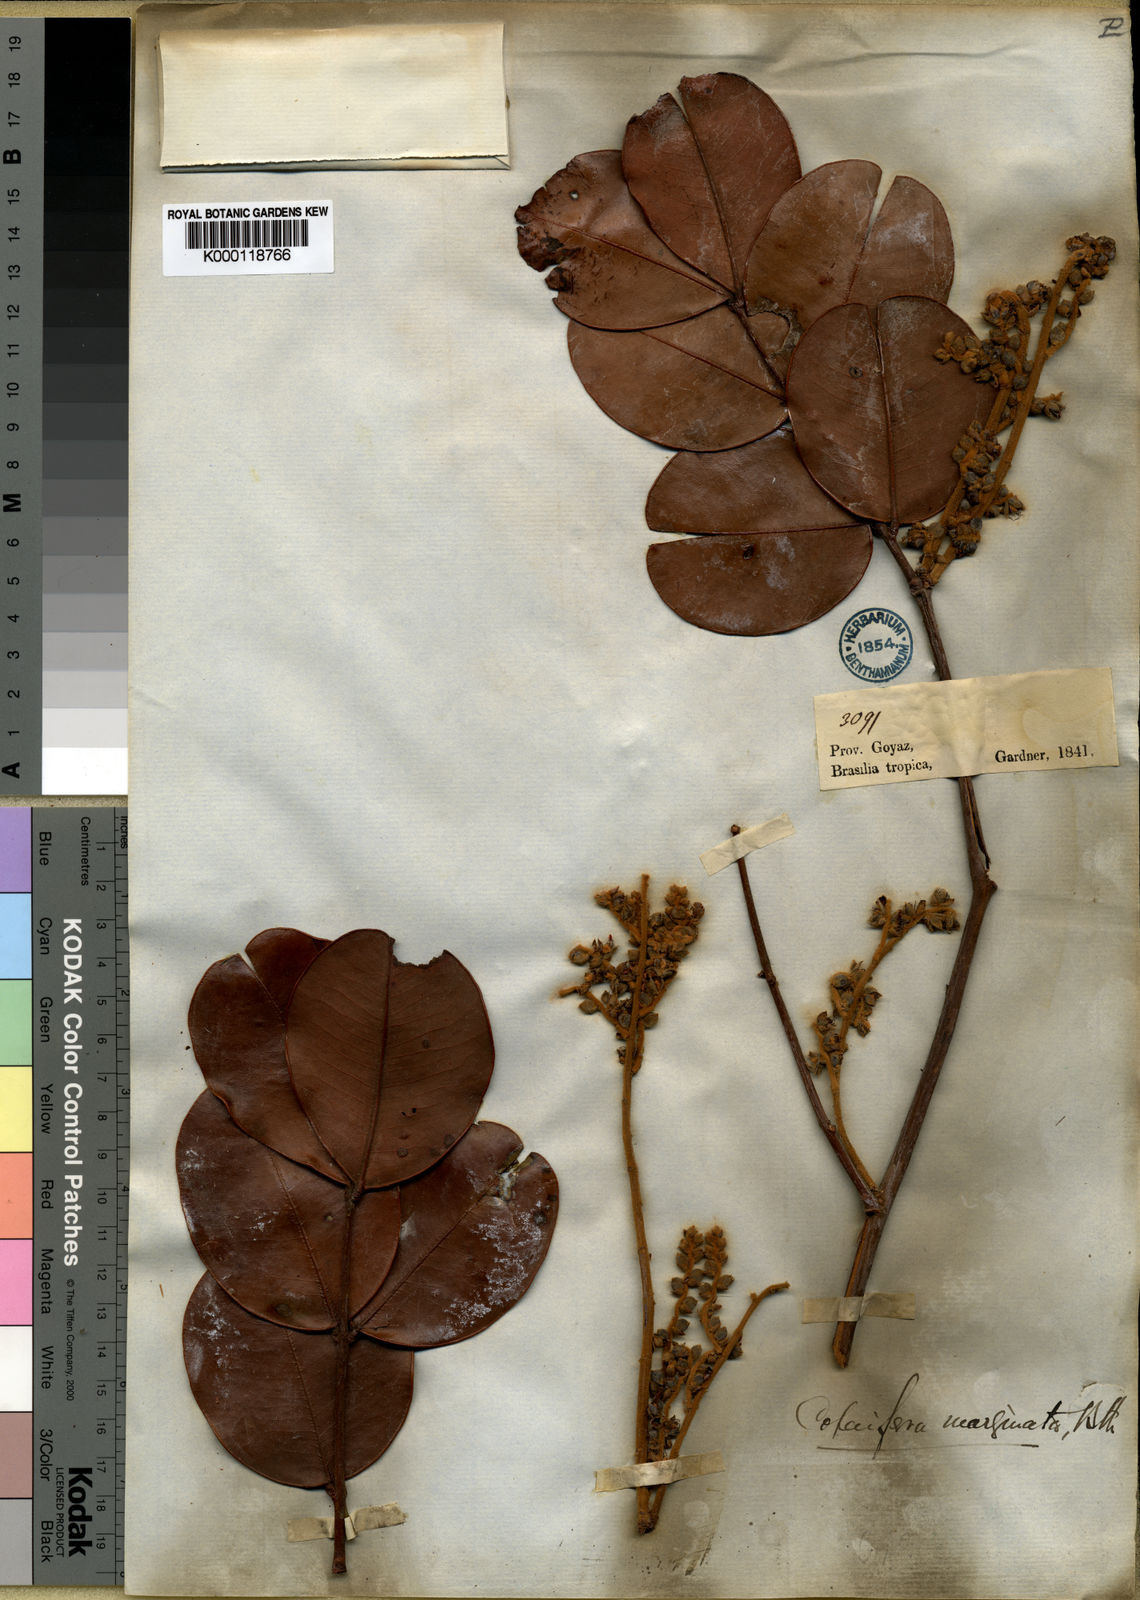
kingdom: Plantae
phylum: Tracheophyta
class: Magnoliopsida
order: Fabales
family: Fabaceae
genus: Copaifera
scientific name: Copaifera marginata
